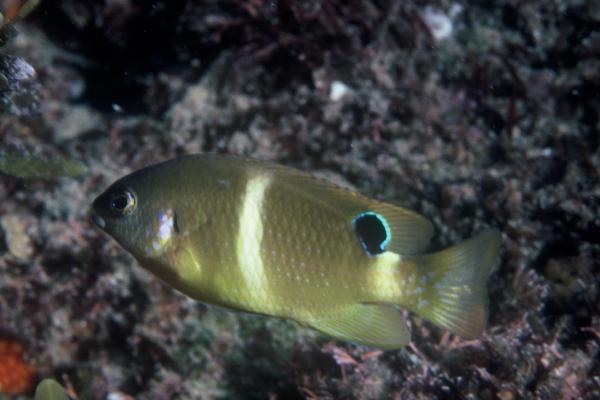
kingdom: Animalia
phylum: Chordata
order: Perciformes
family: Pomacentridae
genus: Chrysiptera
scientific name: Chrysiptera brownriggii
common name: Surge demoiselle
